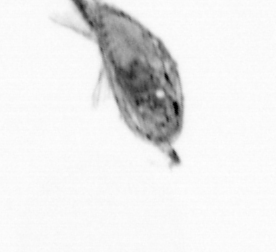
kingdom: Animalia
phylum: Arthropoda
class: Maxillopoda
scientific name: Maxillopoda
